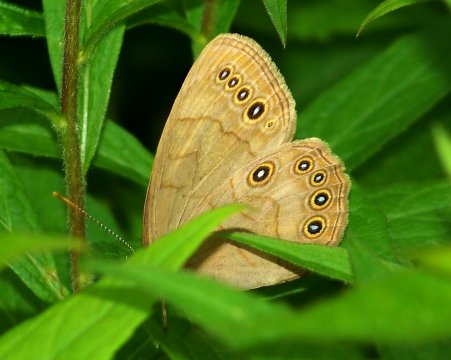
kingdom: Animalia
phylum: Arthropoda
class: Insecta
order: Lepidoptera
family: Nymphalidae
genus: Lethe
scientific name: Lethe eurydice
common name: Appalachian Eyed Brown
